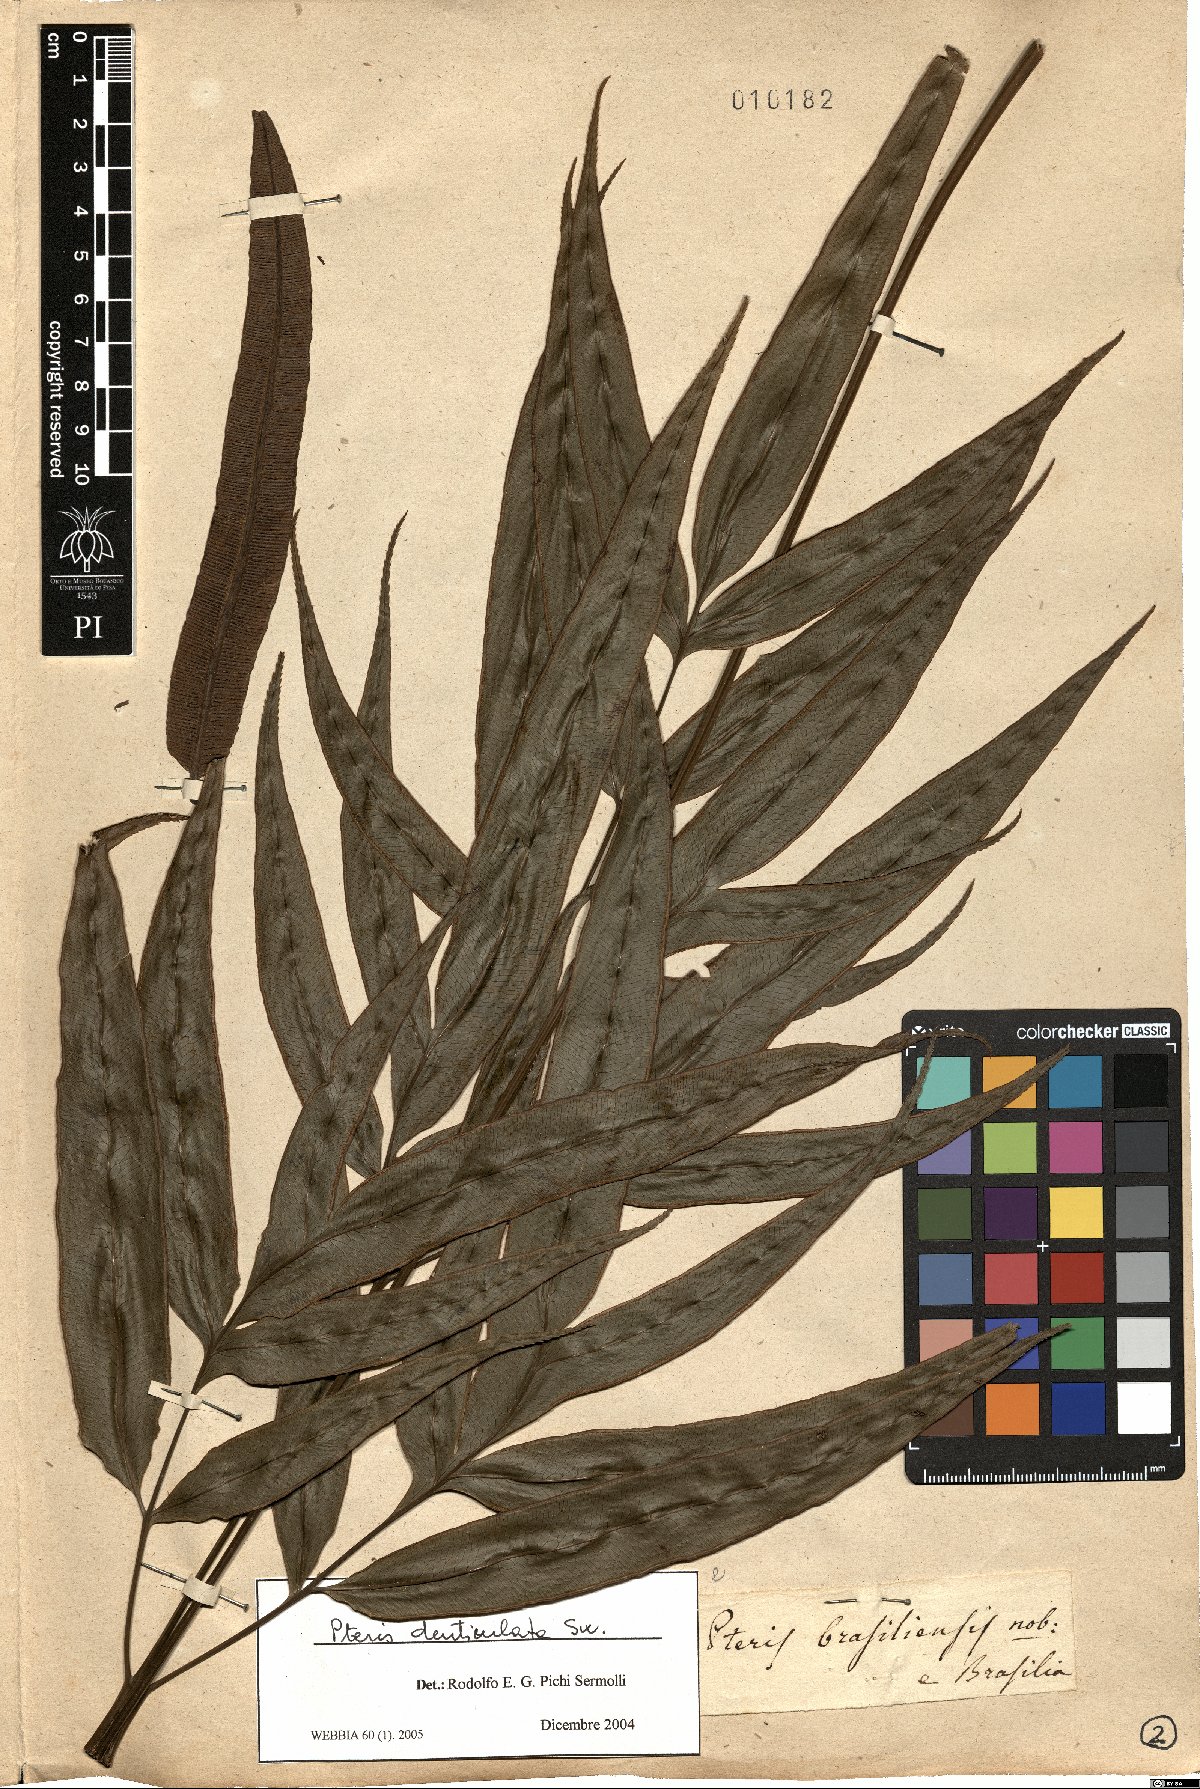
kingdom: Plantae
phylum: Tracheophyta
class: Polypodiopsida
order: Polypodiales
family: Pteridaceae
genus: Pteris
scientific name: Pteris denticulata
